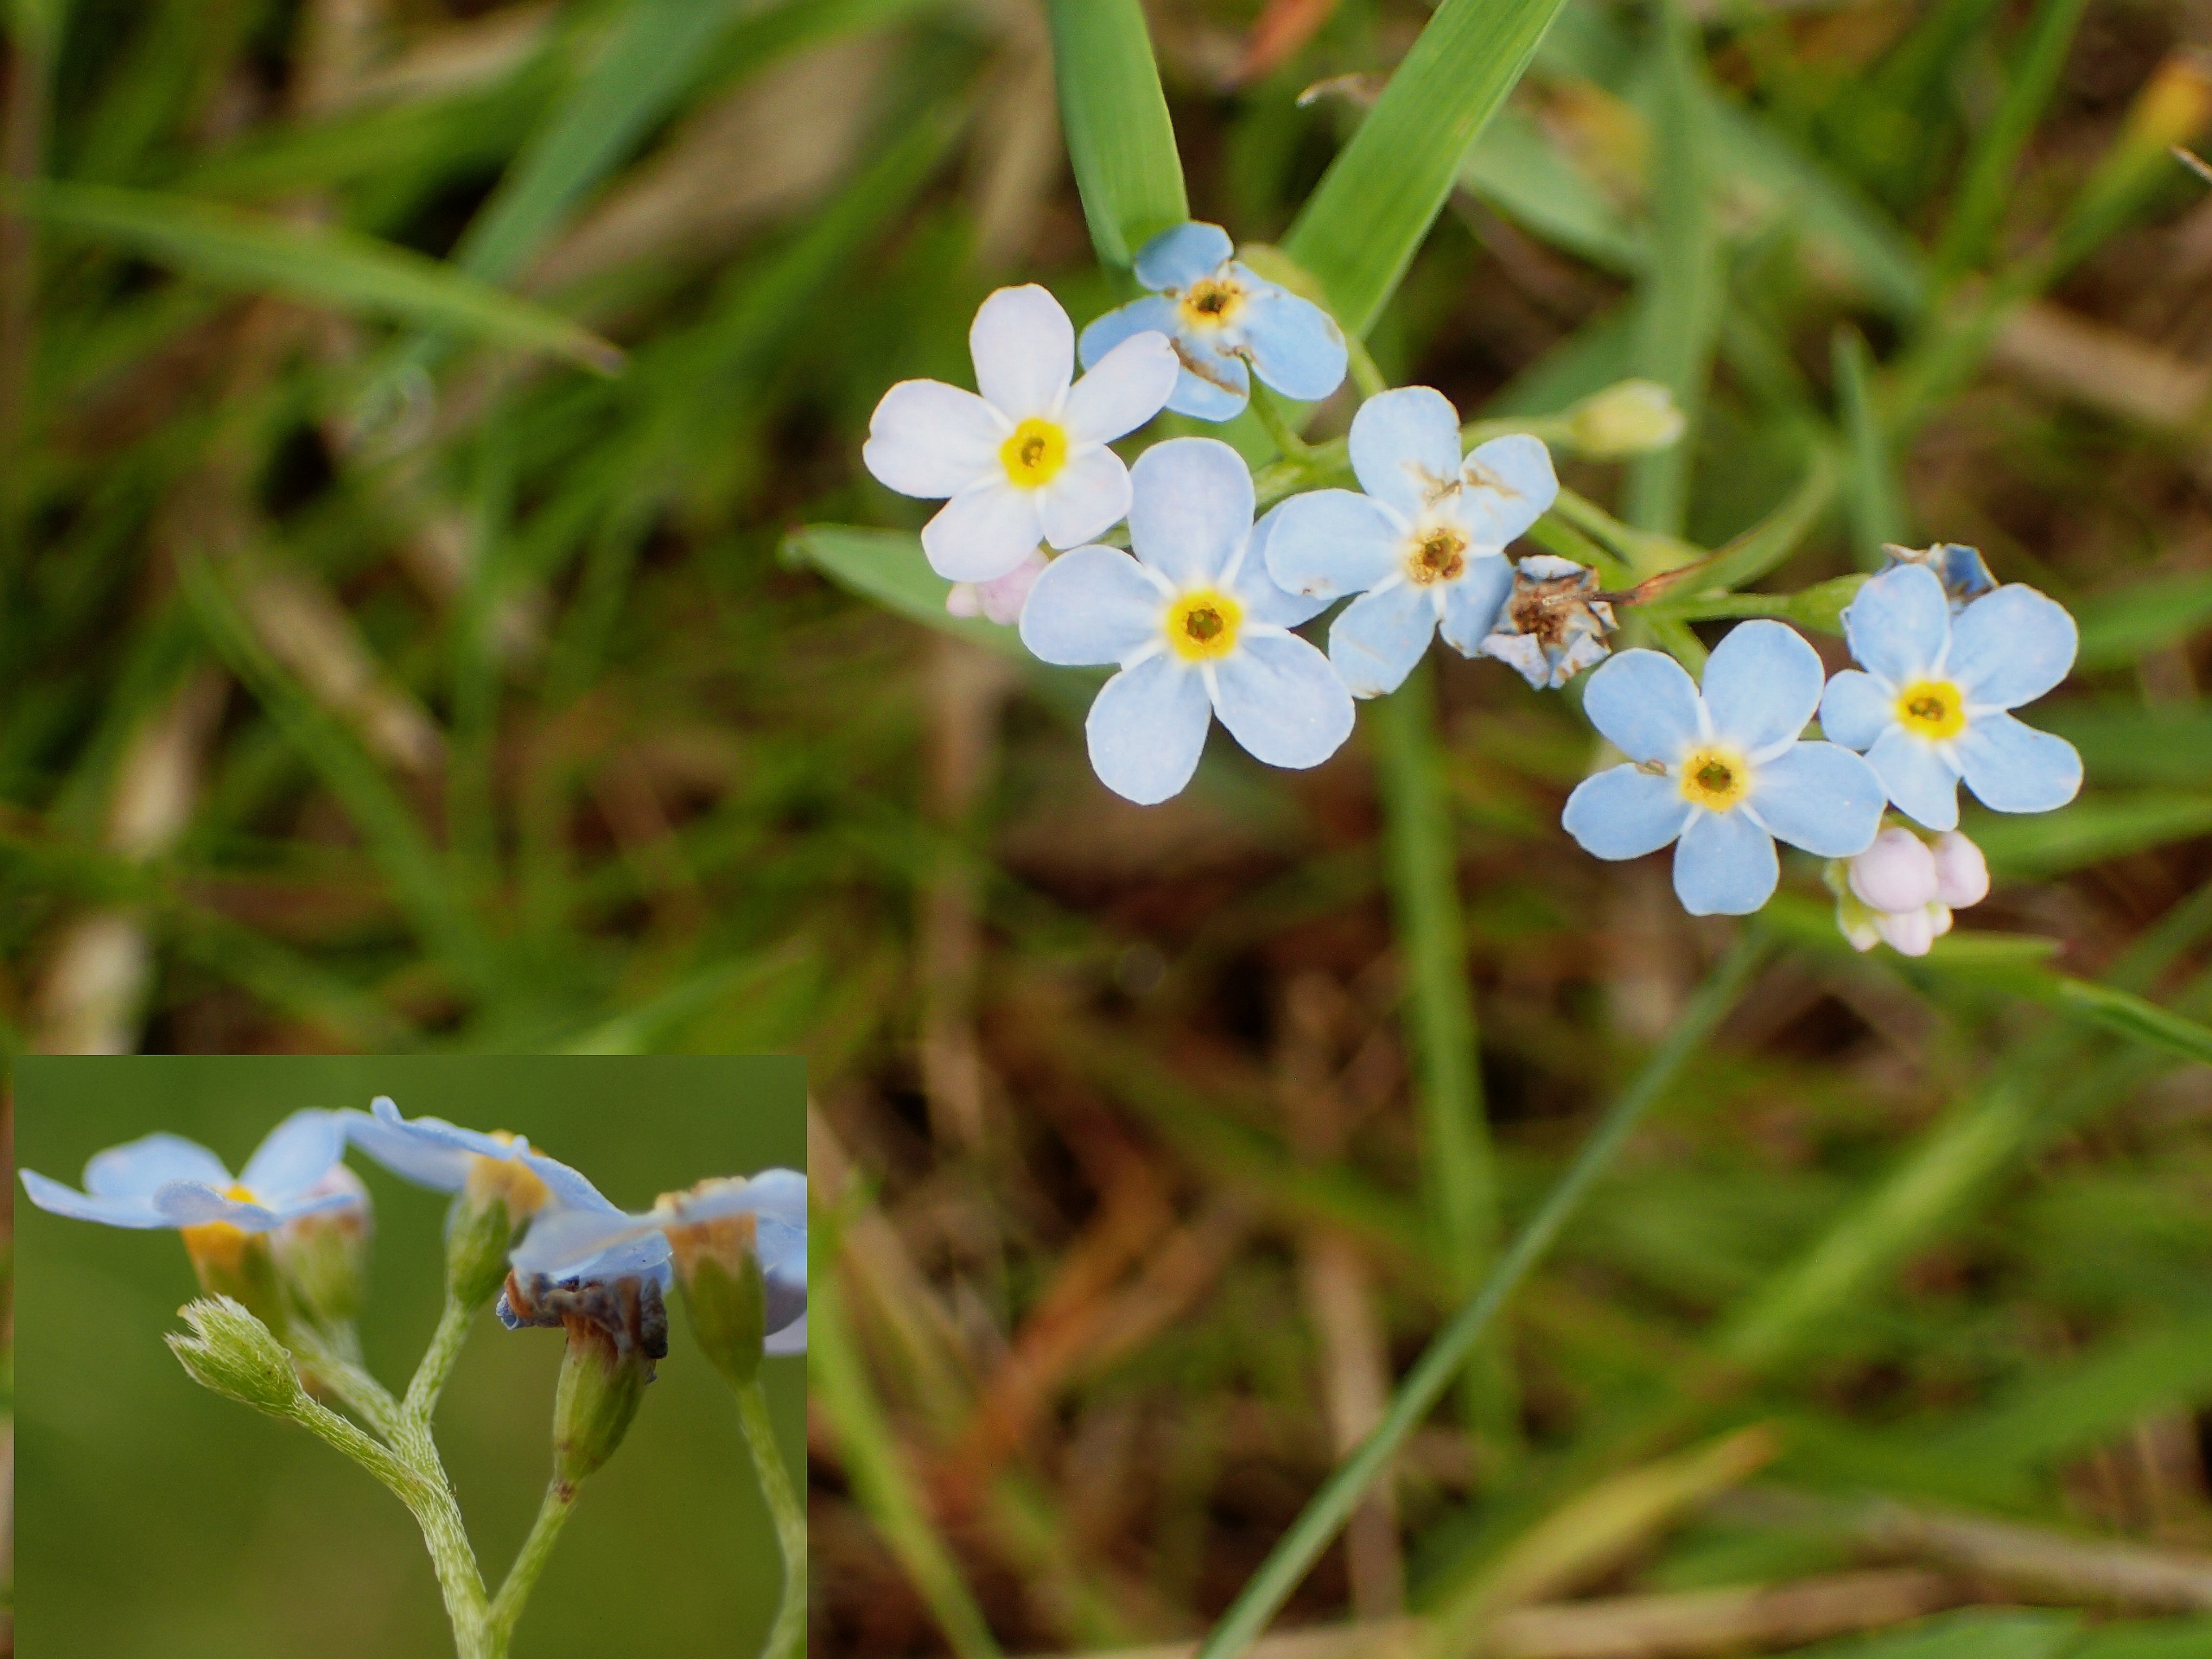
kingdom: Plantae
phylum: Tracheophyta
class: Magnoliopsida
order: Boraginales
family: Boraginaceae
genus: Myosotis
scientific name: Myosotis scorpioides
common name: Eng-forglemmigej
